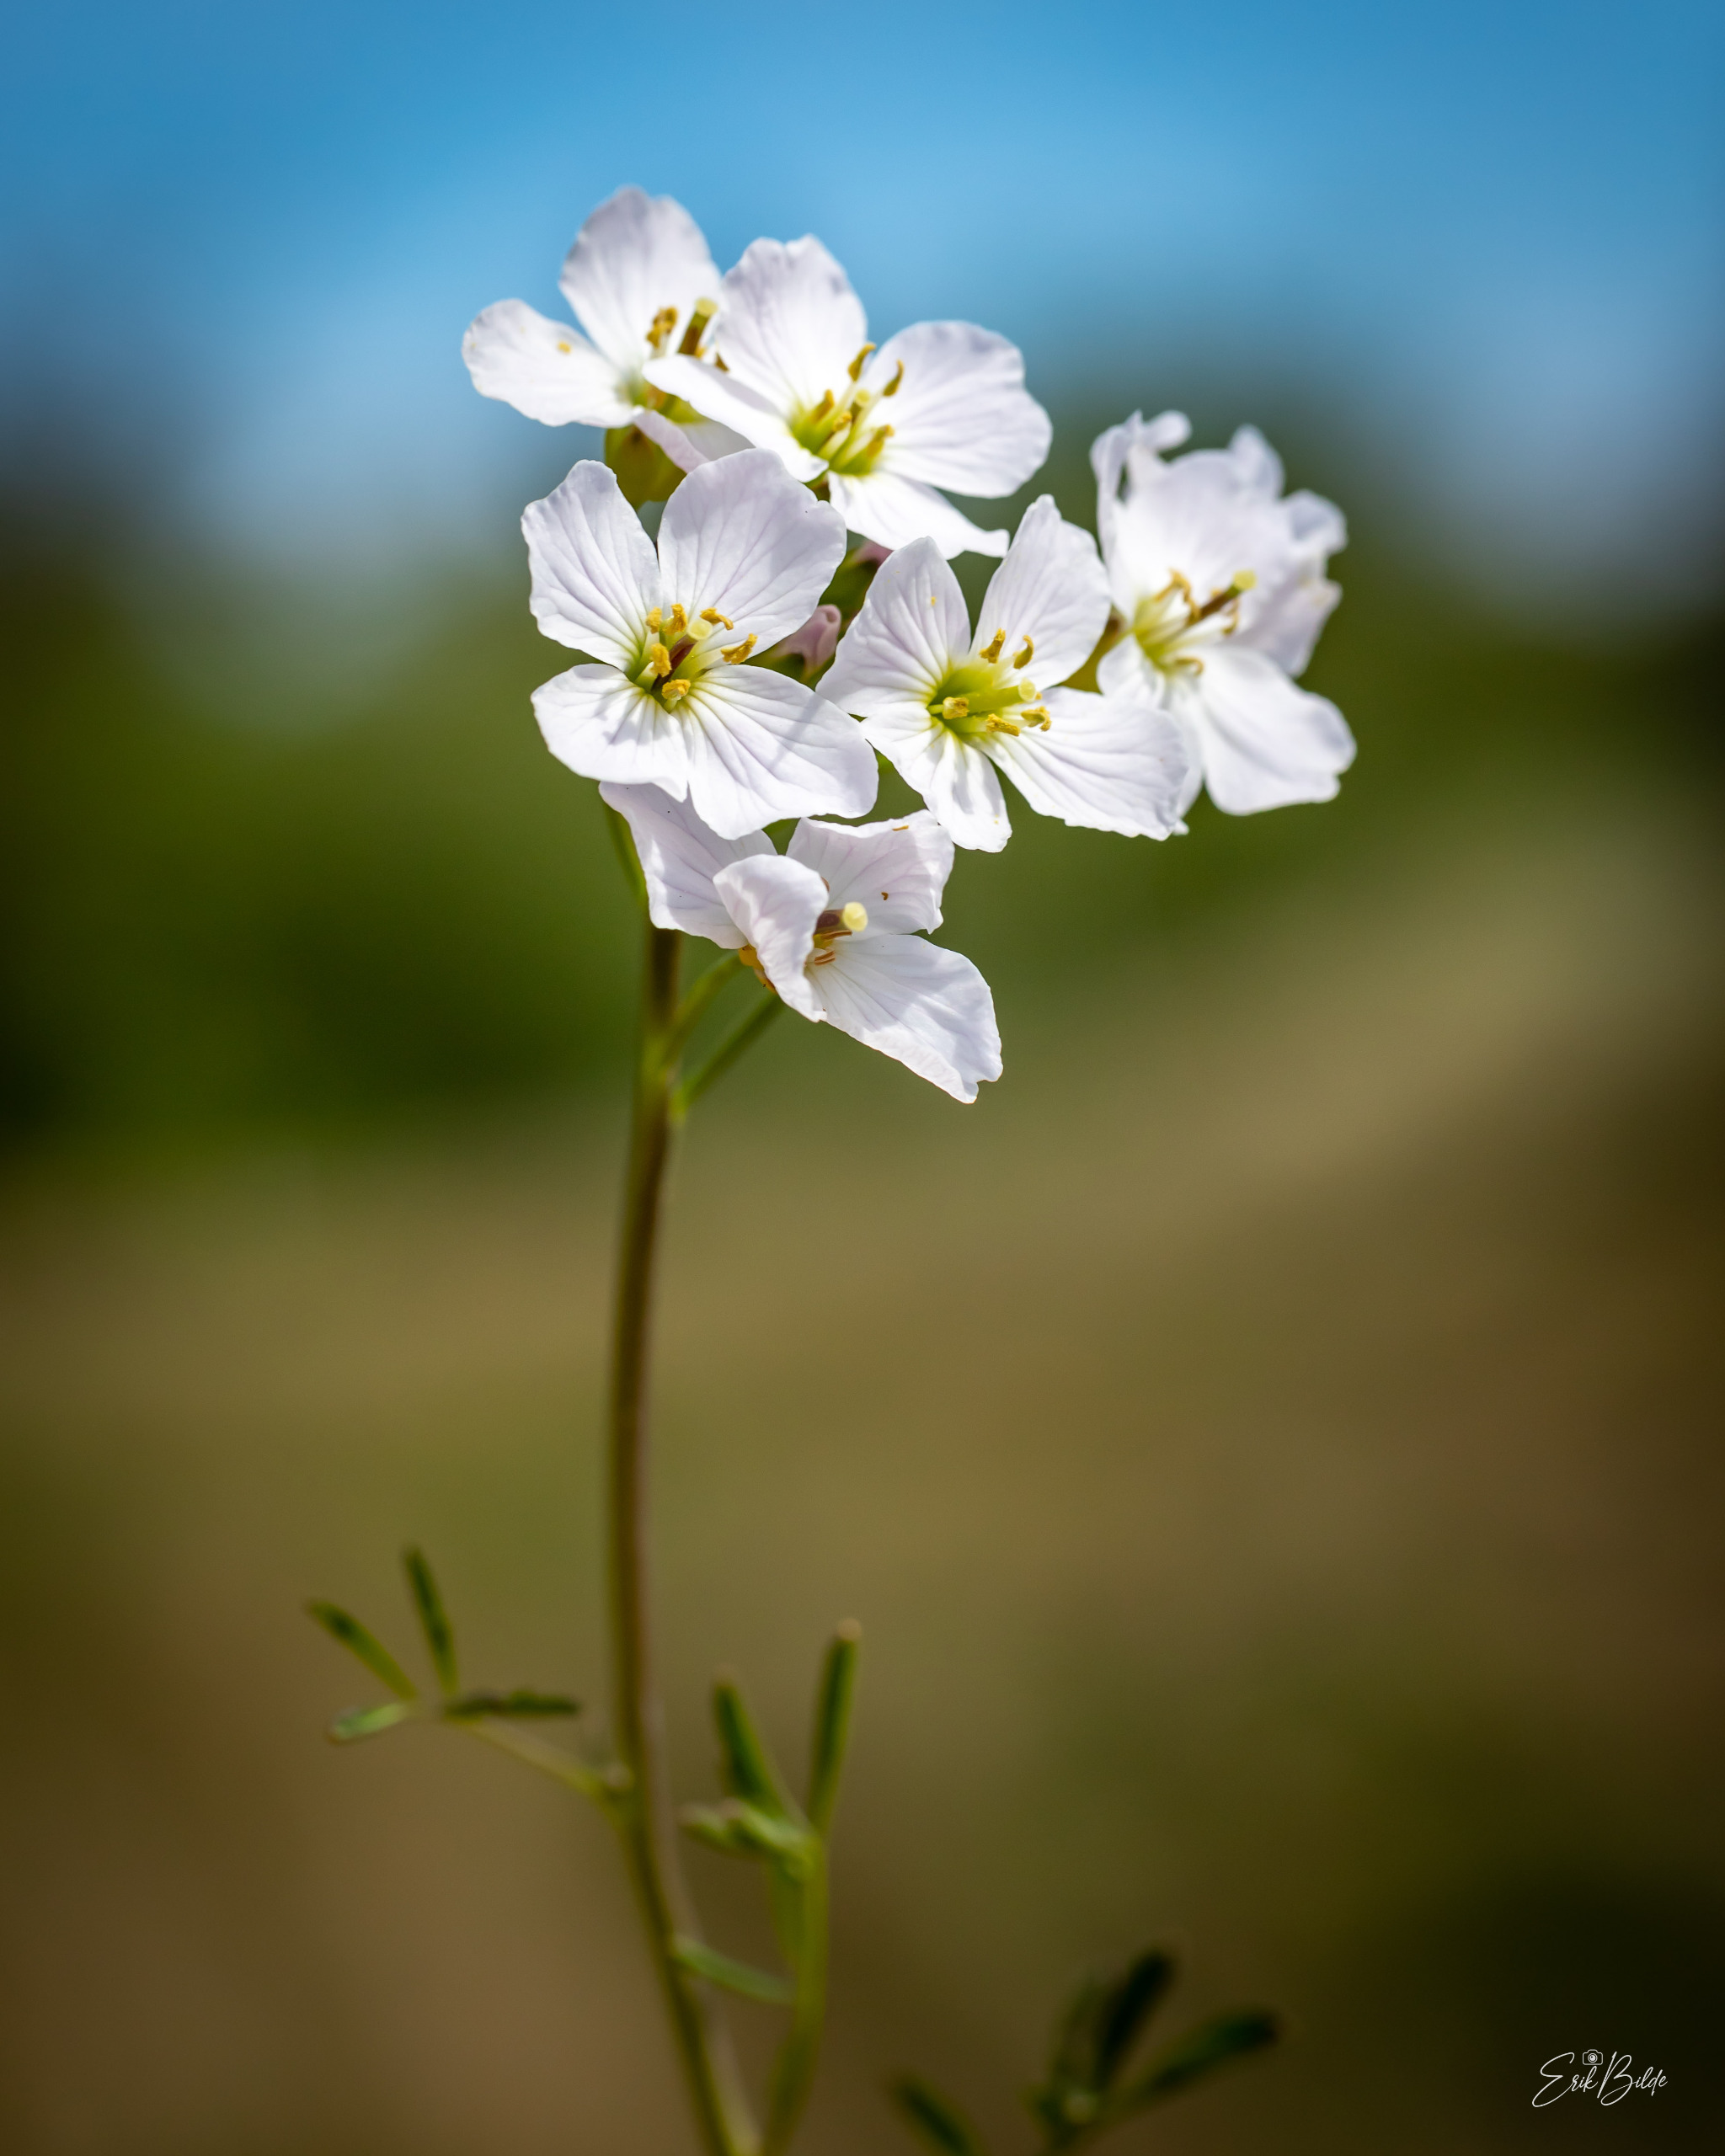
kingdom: Plantae
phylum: Tracheophyta
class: Magnoliopsida
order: Brassicales
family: Brassicaceae
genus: Cardamine
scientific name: Cardamine pratensis
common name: Engkarse
